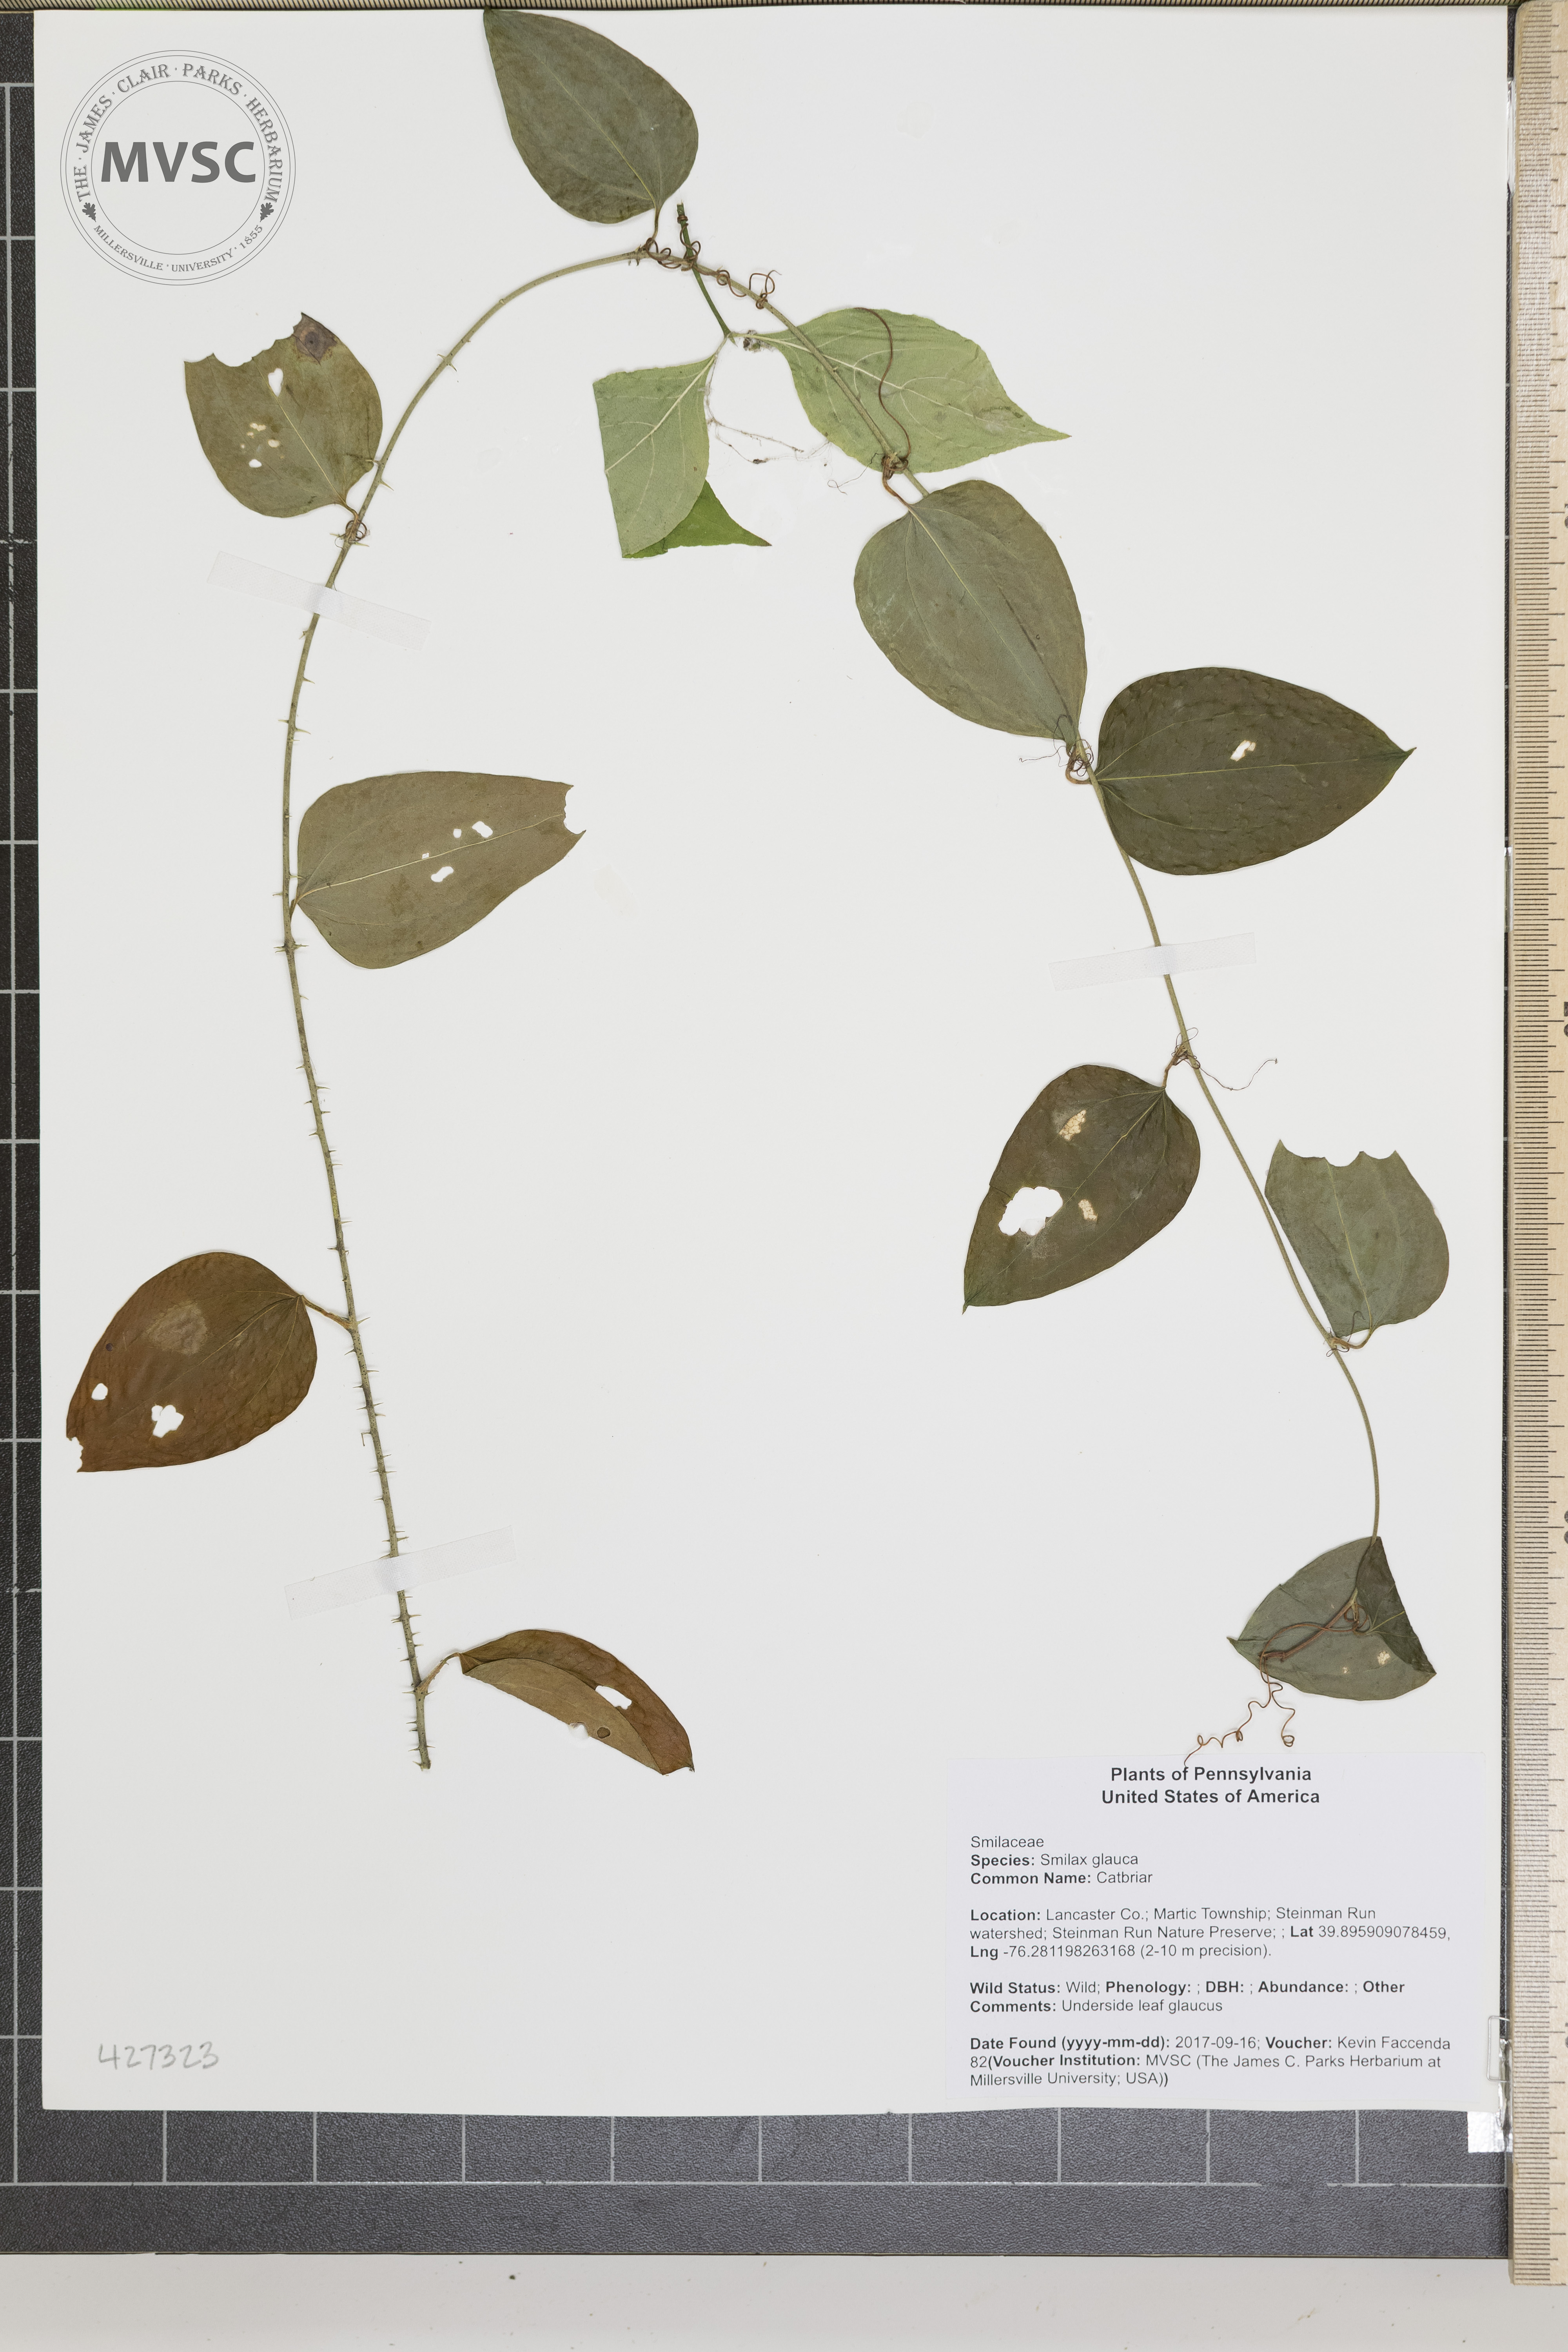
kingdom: Plantae
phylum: Tracheophyta
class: Liliopsida
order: Liliales
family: Smilacaceae
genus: Smilax
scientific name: Smilax glauca
